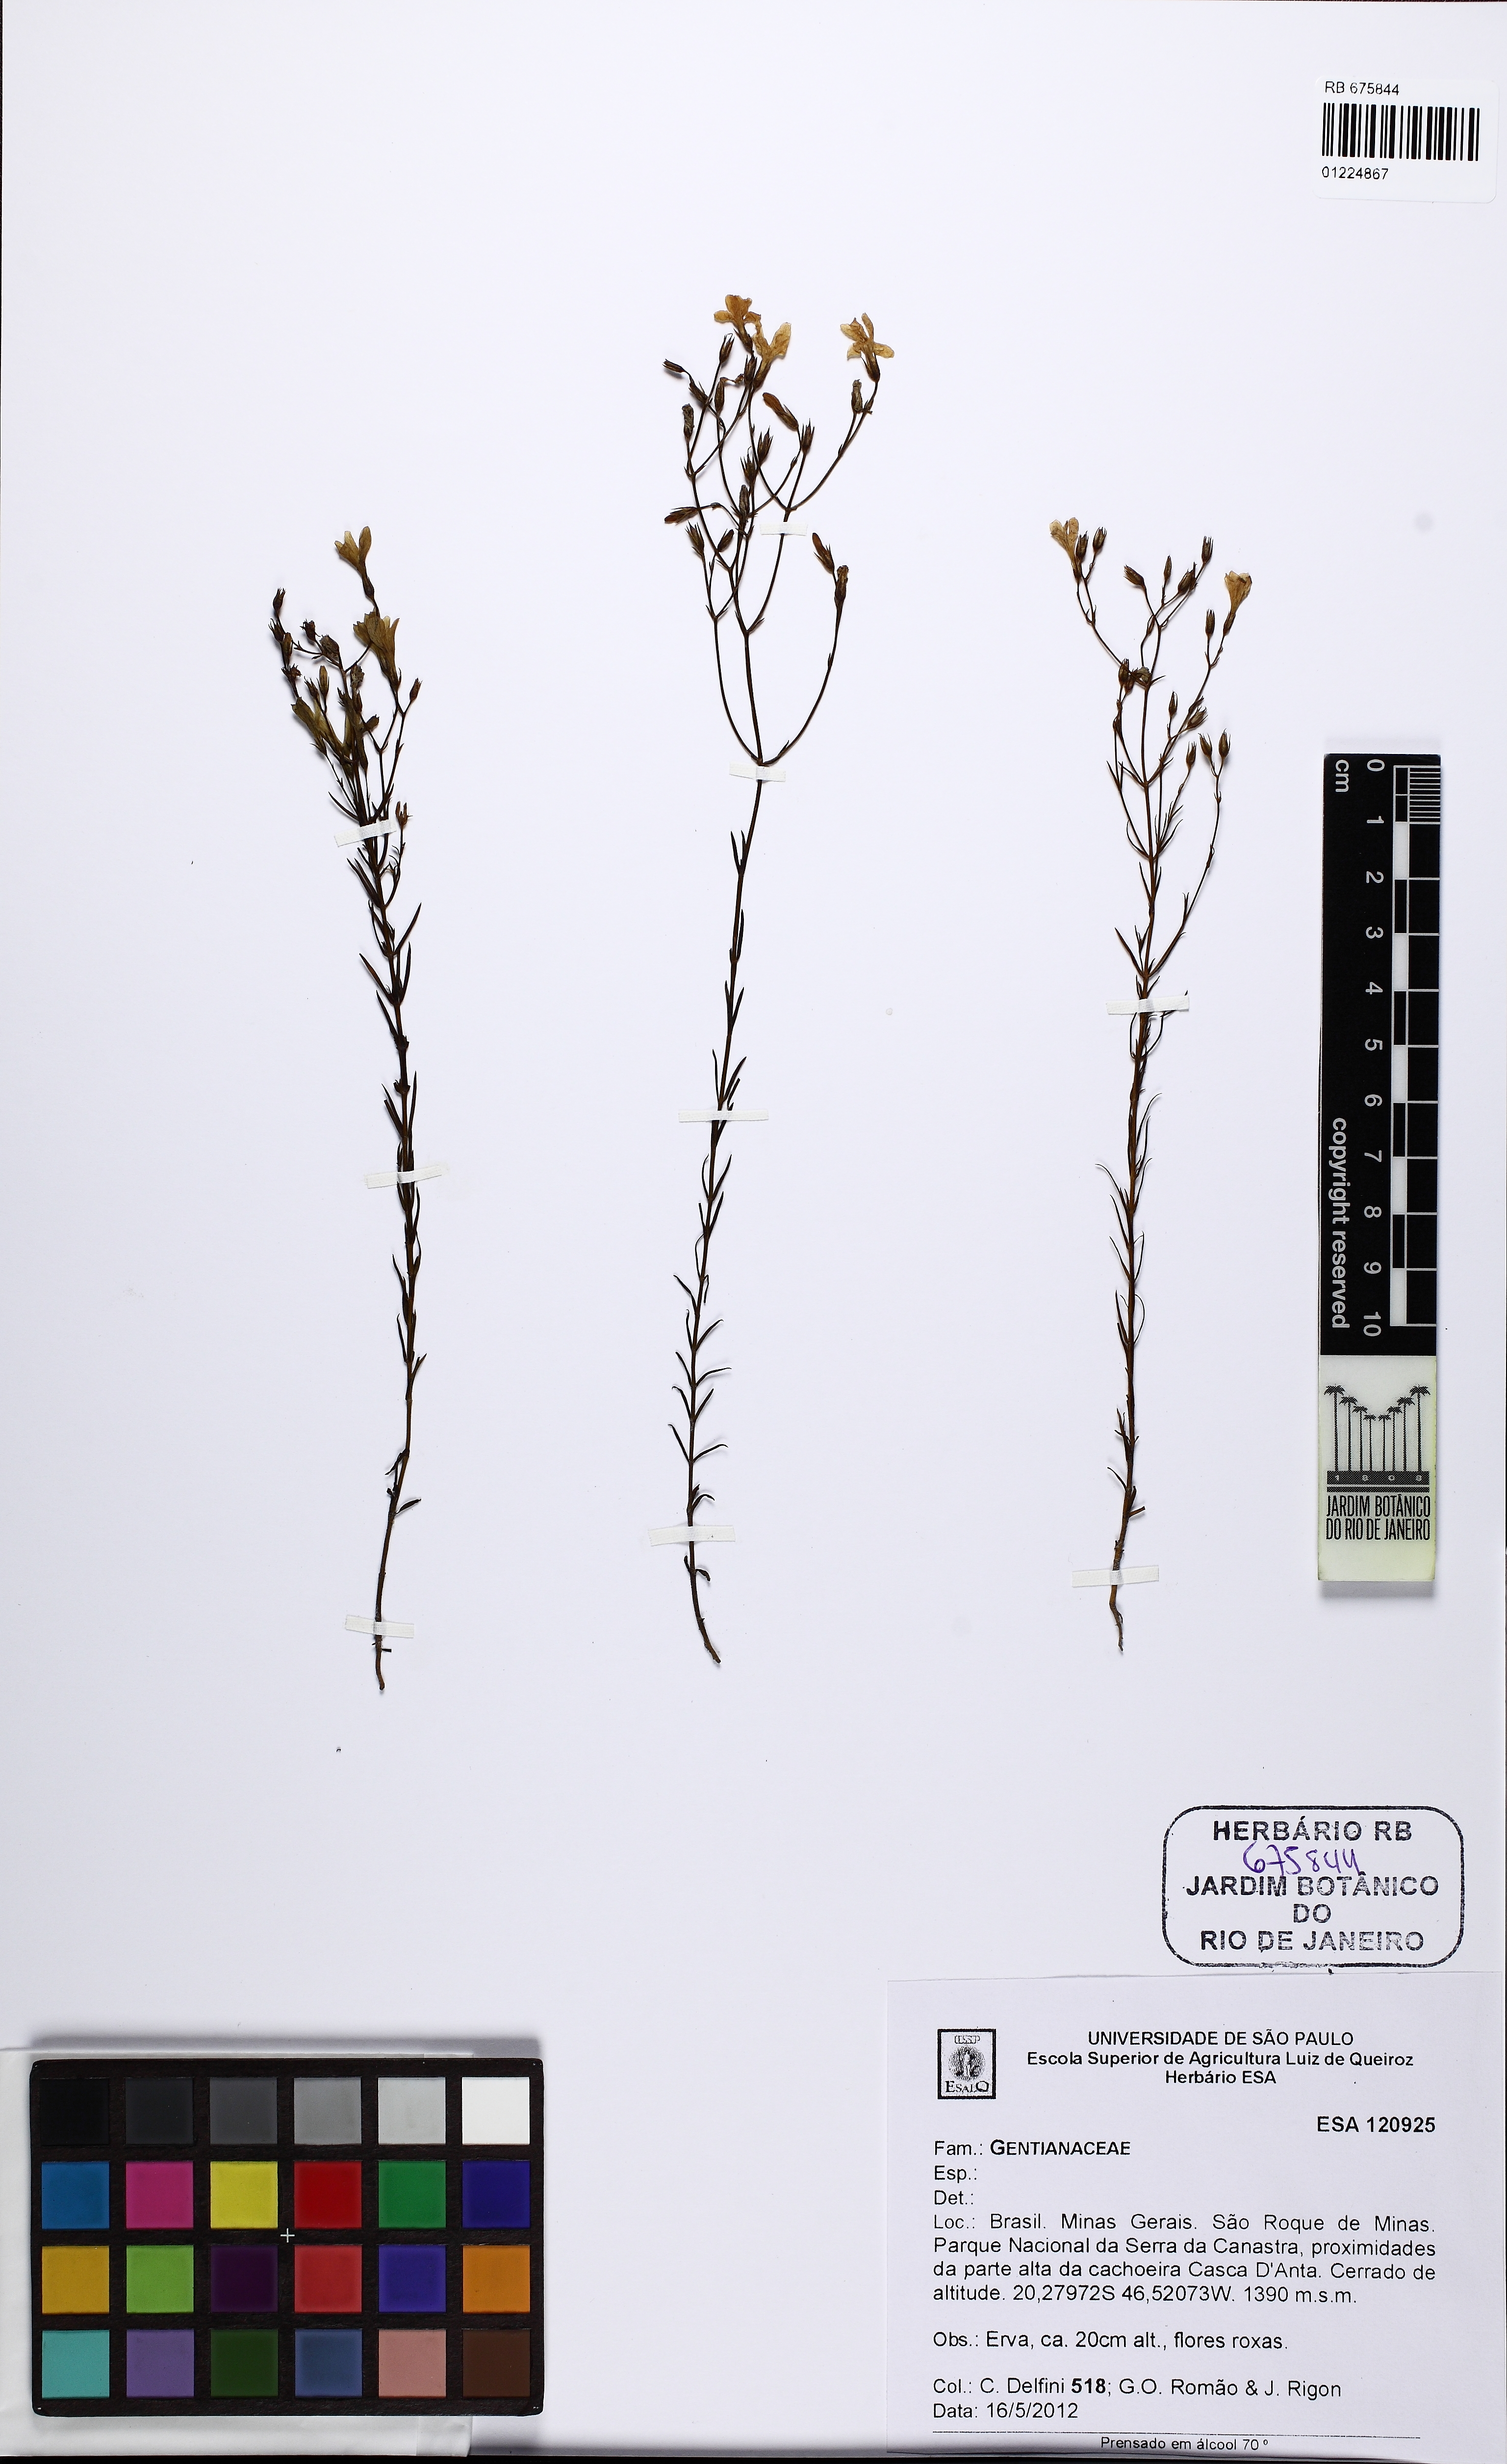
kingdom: Plantae
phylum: Tracheophyta
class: Magnoliopsida
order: Gentianales
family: Gentianaceae
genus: Curtia
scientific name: Curtia
